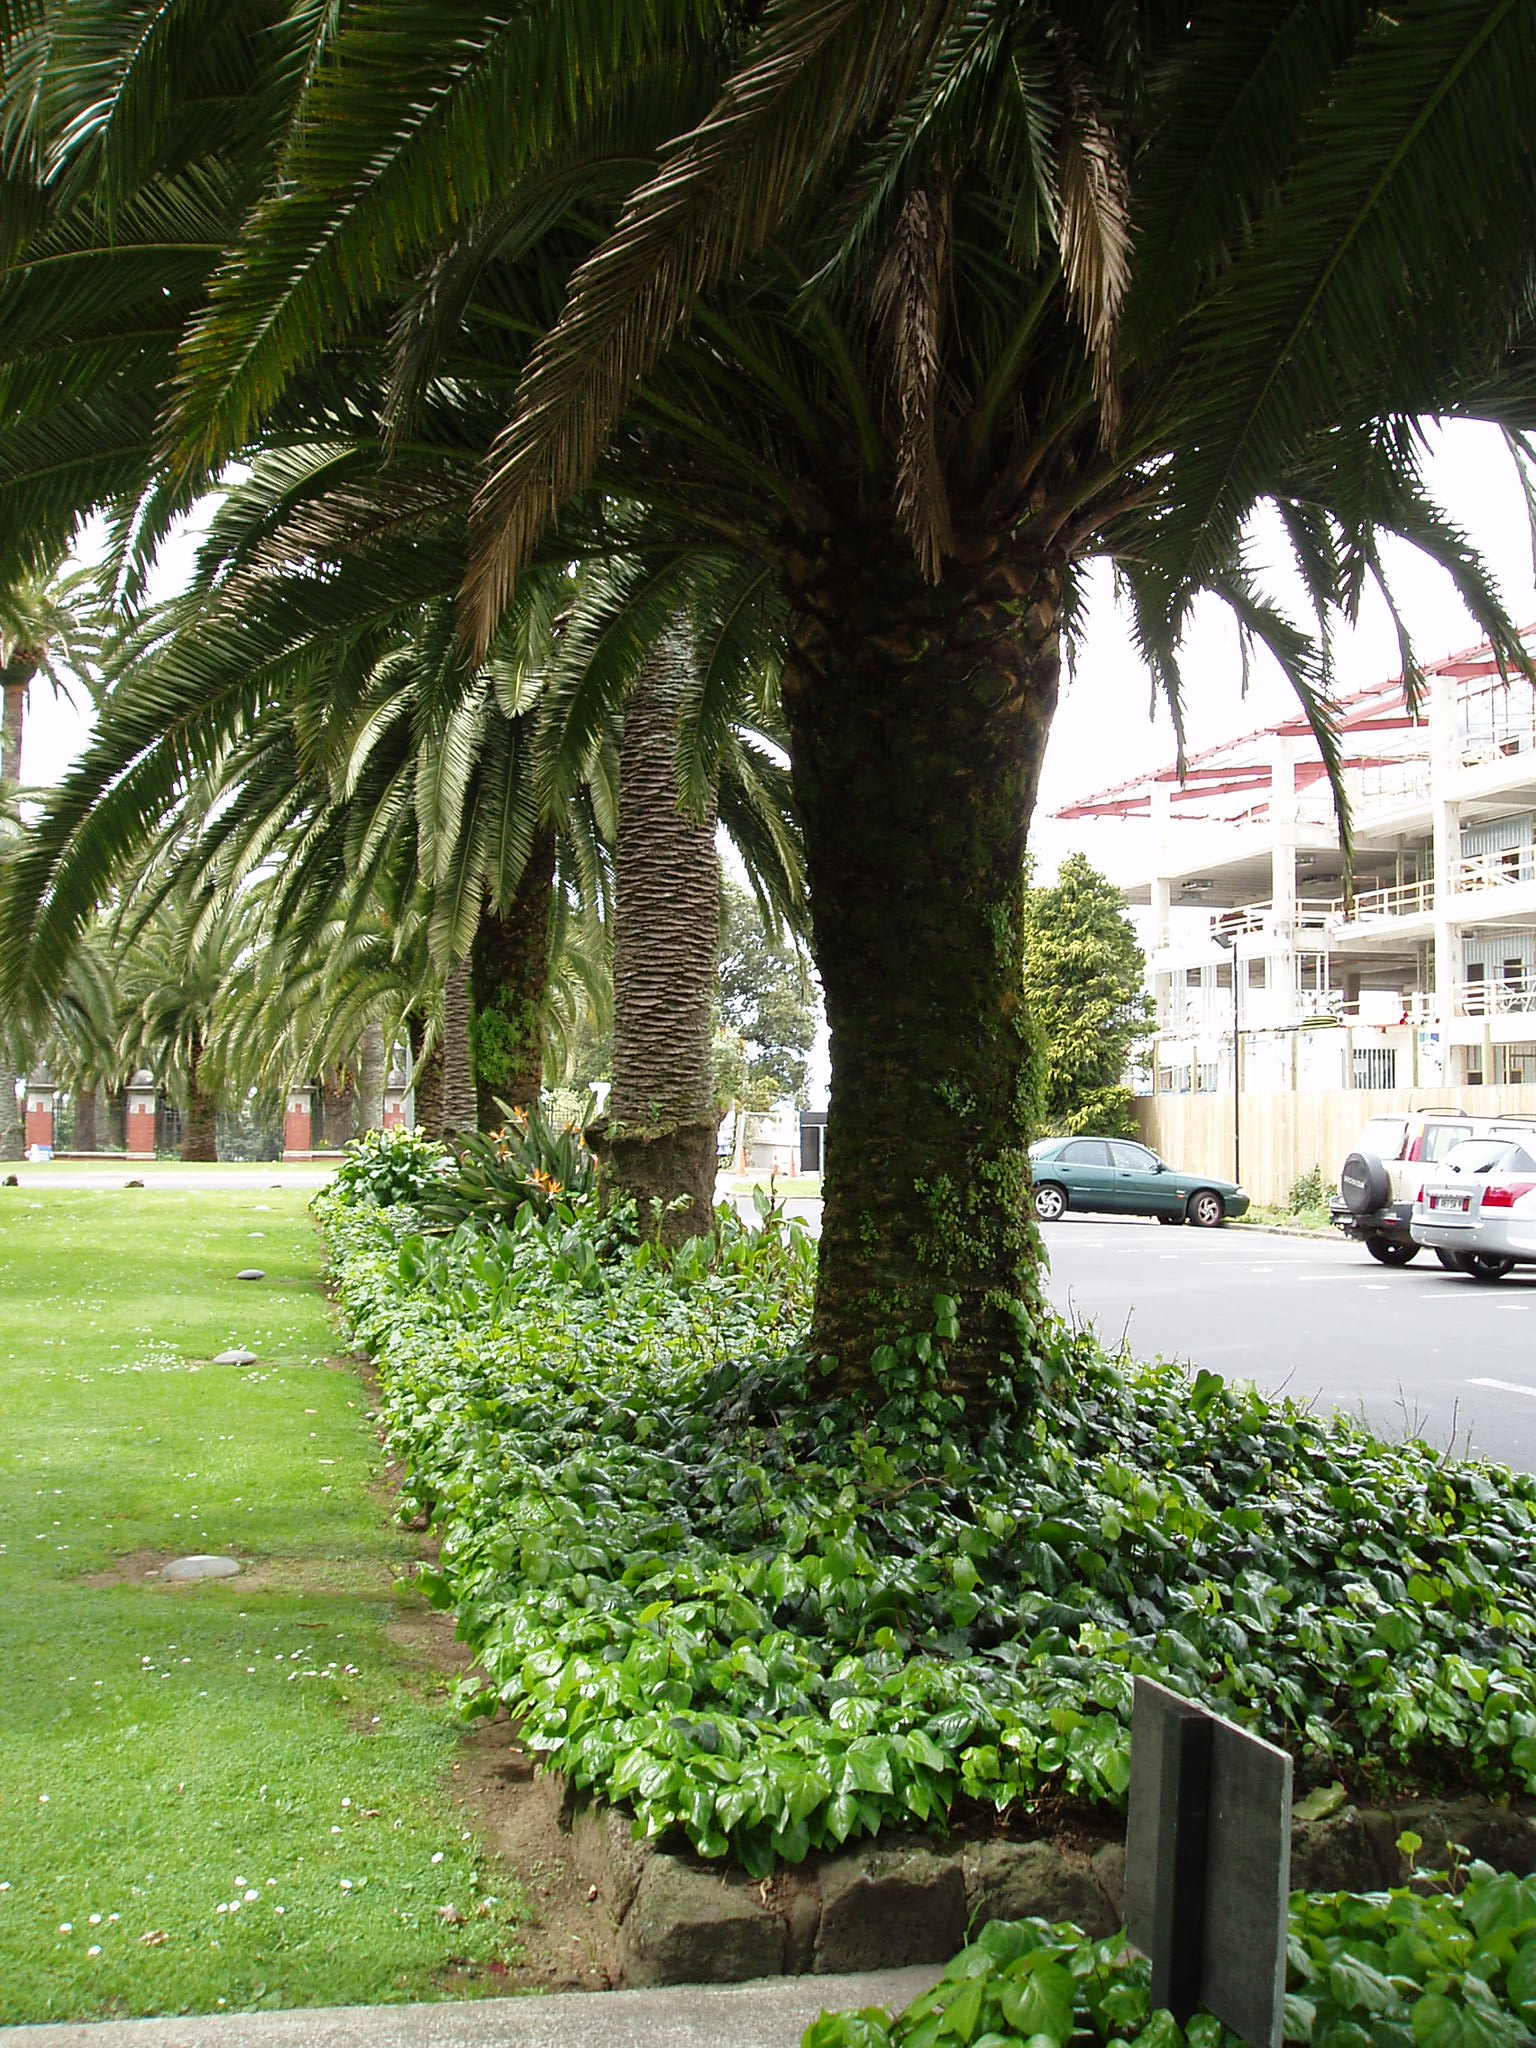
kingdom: Plantae
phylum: Tracheophyta
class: Liliopsida
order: Arecales
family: Arecaceae
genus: Phoenix
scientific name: Phoenix canariensis
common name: Canary island date palm
